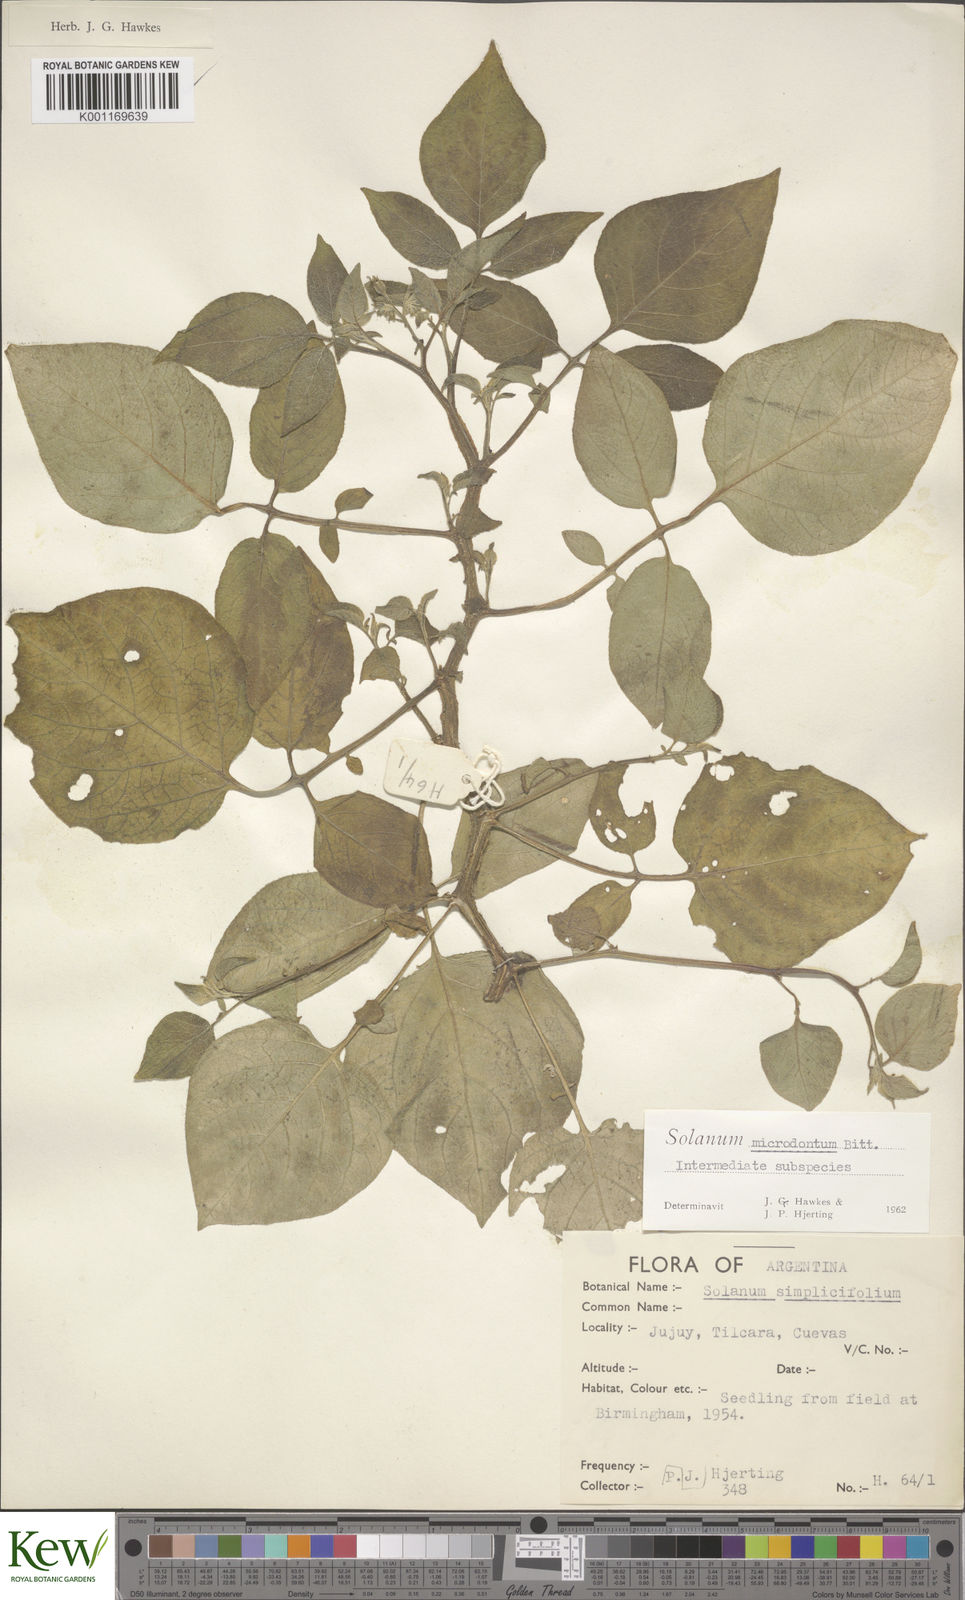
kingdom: Plantae
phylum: Tracheophyta
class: Magnoliopsida
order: Solanales
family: Solanaceae
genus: Solanum
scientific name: Solanum microdontum
